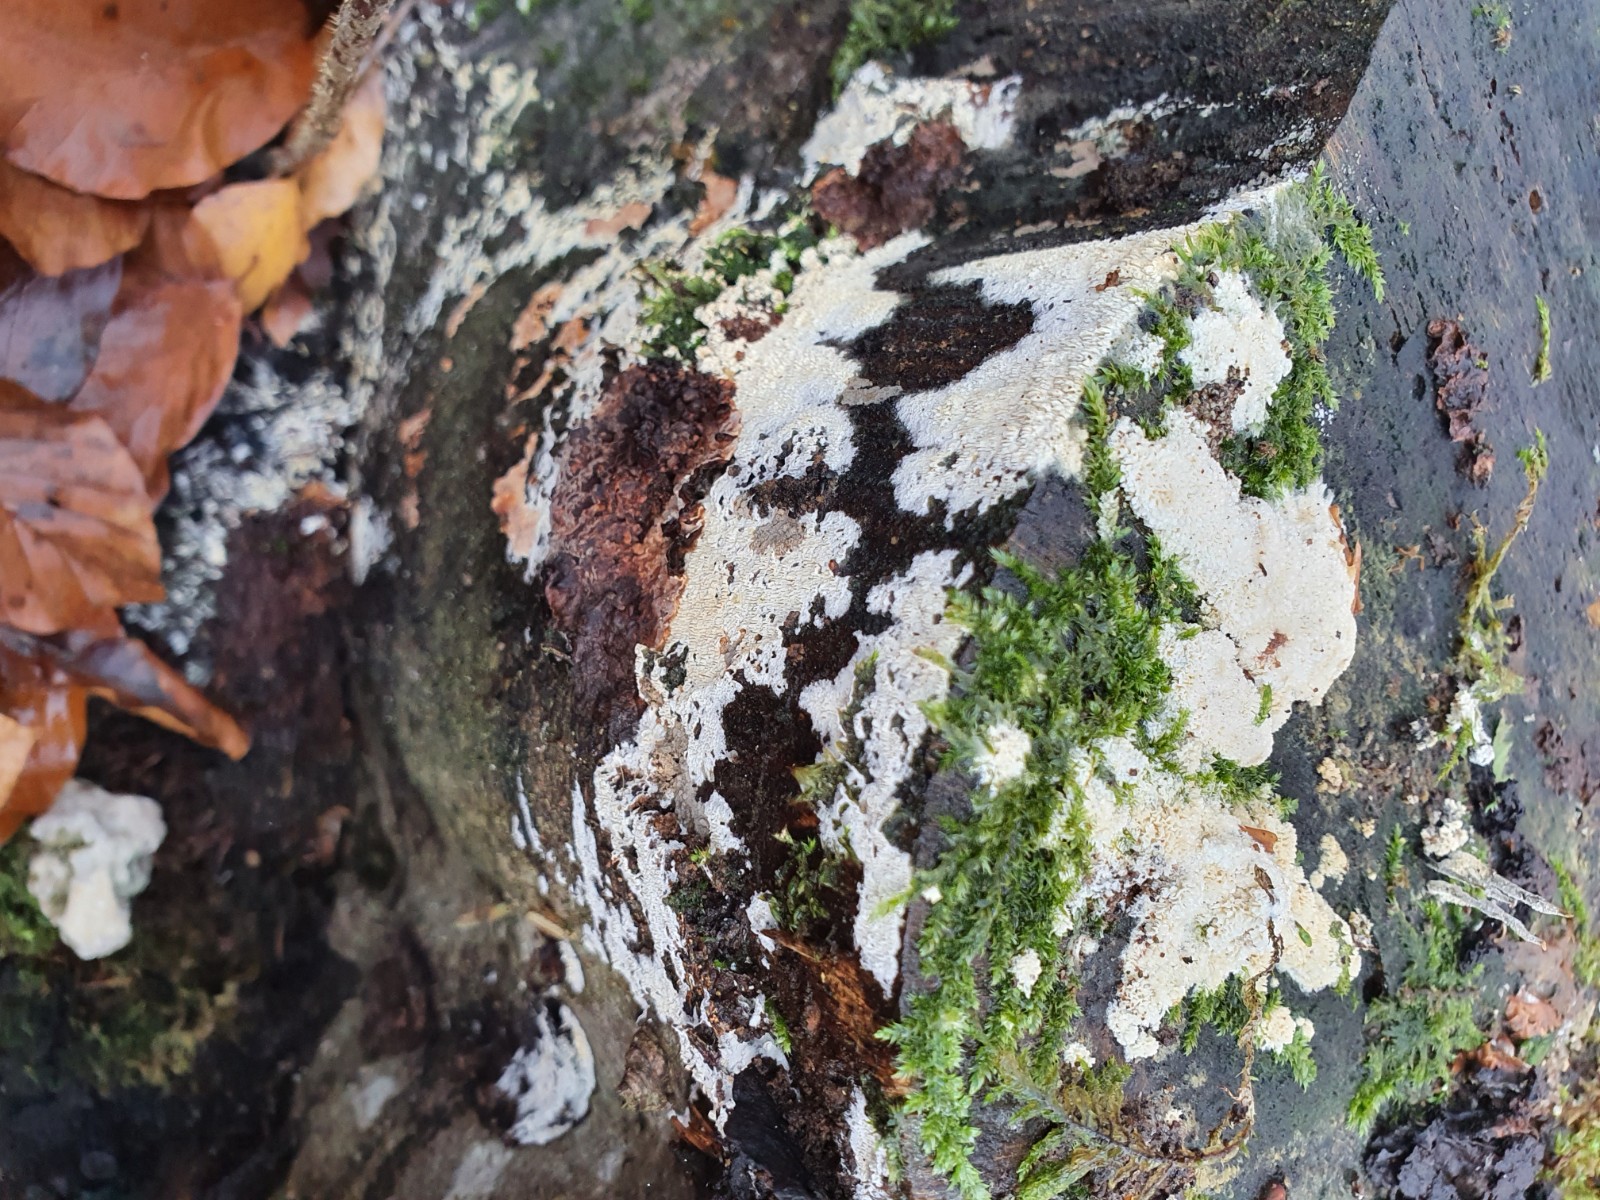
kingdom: Fungi
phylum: Basidiomycota
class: Agaricomycetes
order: Hymenochaetales
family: Schizoporaceae
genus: Xylodon
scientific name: Xylodon subtropicus
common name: labyrint-tandsvamp
